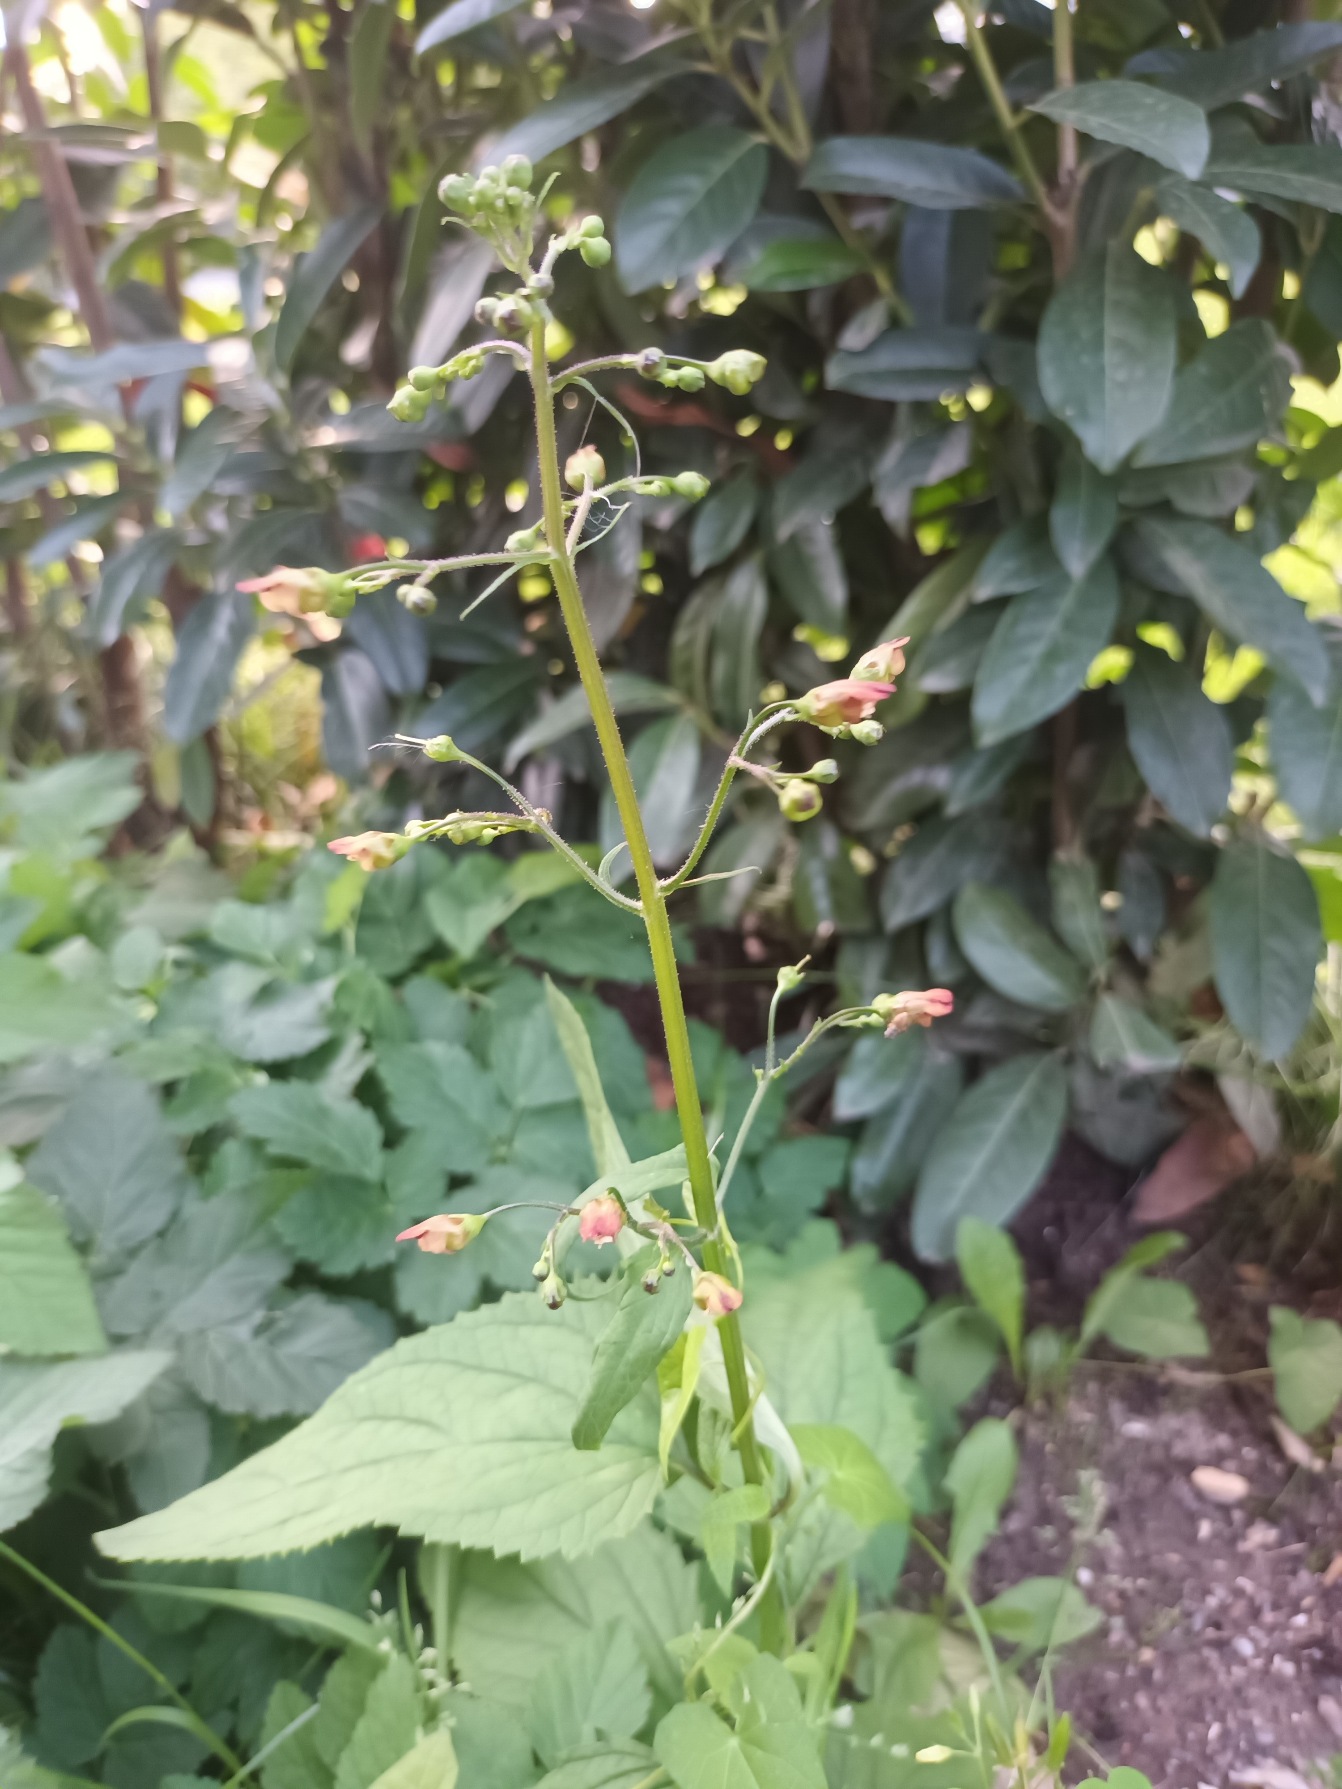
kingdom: Plantae
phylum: Tracheophyta
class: Magnoliopsida
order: Lamiales
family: Scrophulariaceae
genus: Scrophularia
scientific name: Scrophularia nodosa
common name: Knoldet brunrod
